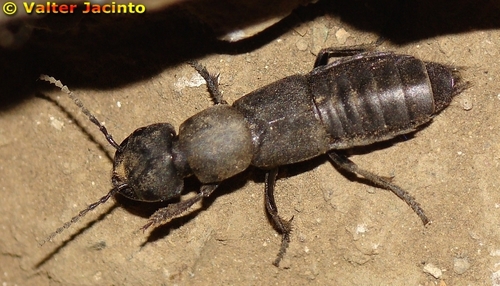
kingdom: Animalia
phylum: Arthropoda
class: Insecta
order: Coleoptera
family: Staphylinidae
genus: Ocypus
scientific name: Ocypus olens
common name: Devil's coach-horse
